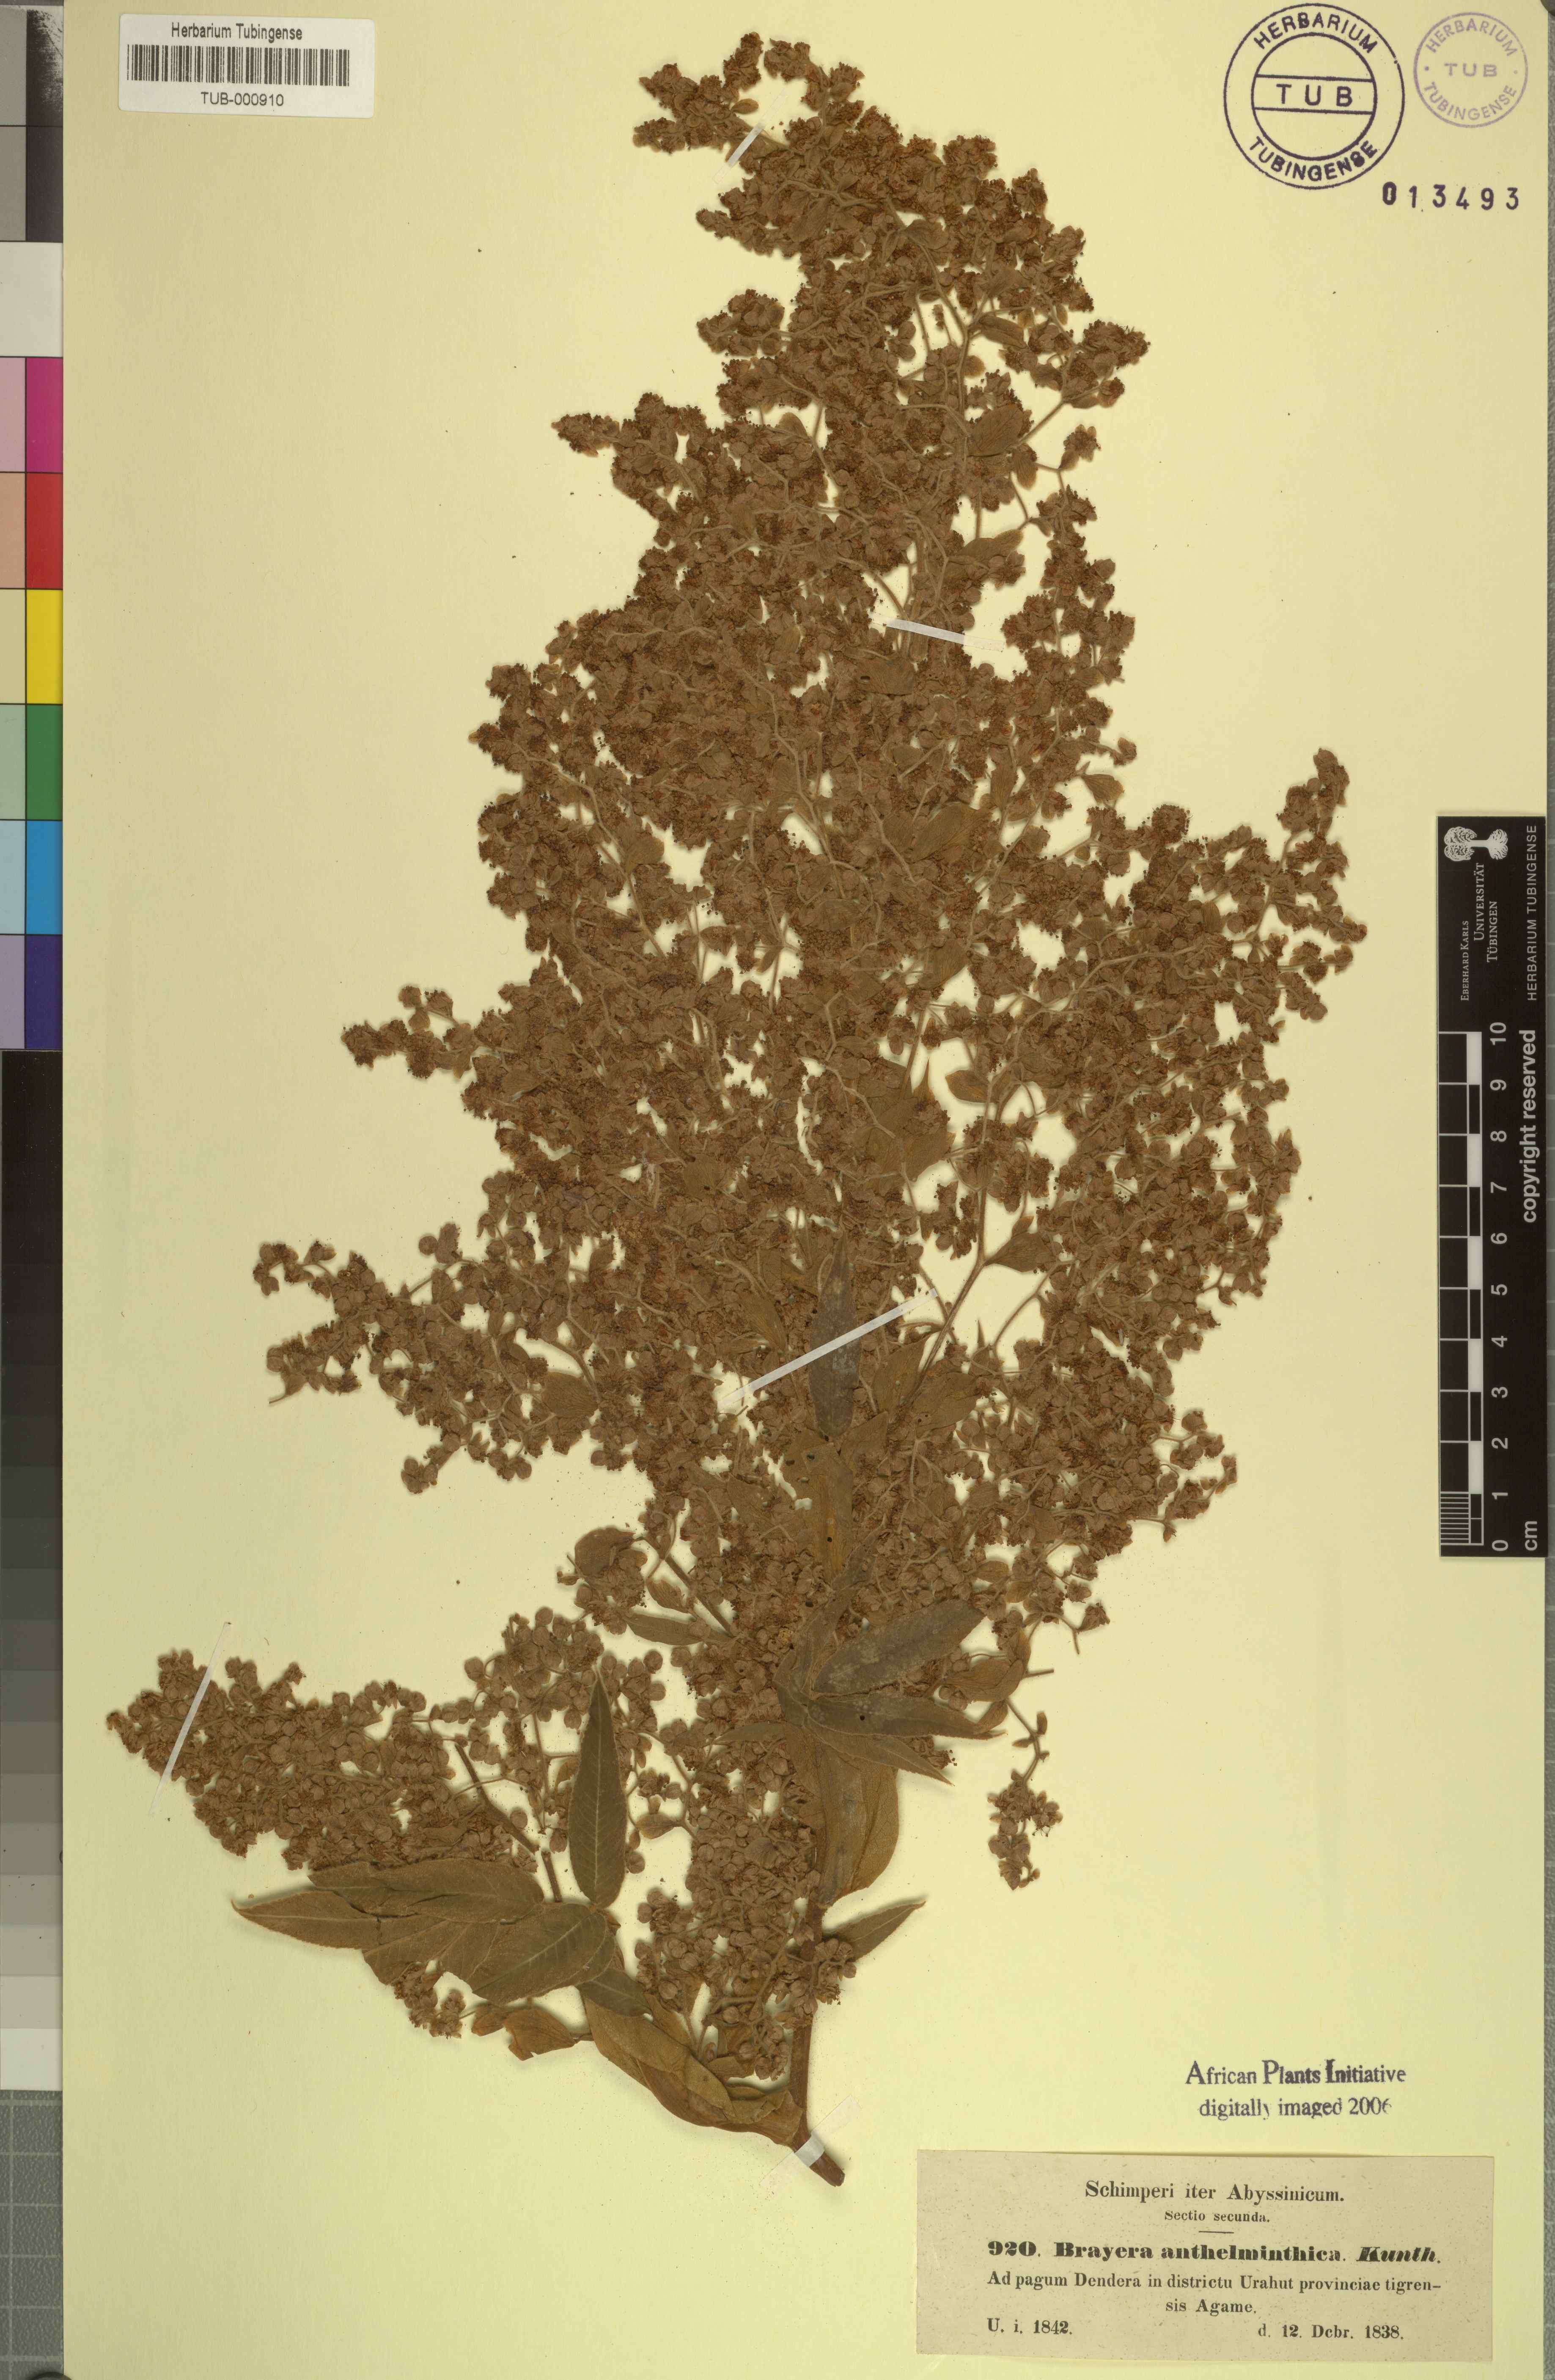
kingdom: Plantae
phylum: Tracheophyta
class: Magnoliopsida
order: Rosales
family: Rosaceae
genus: Hagenia
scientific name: Hagenia abyssinica
